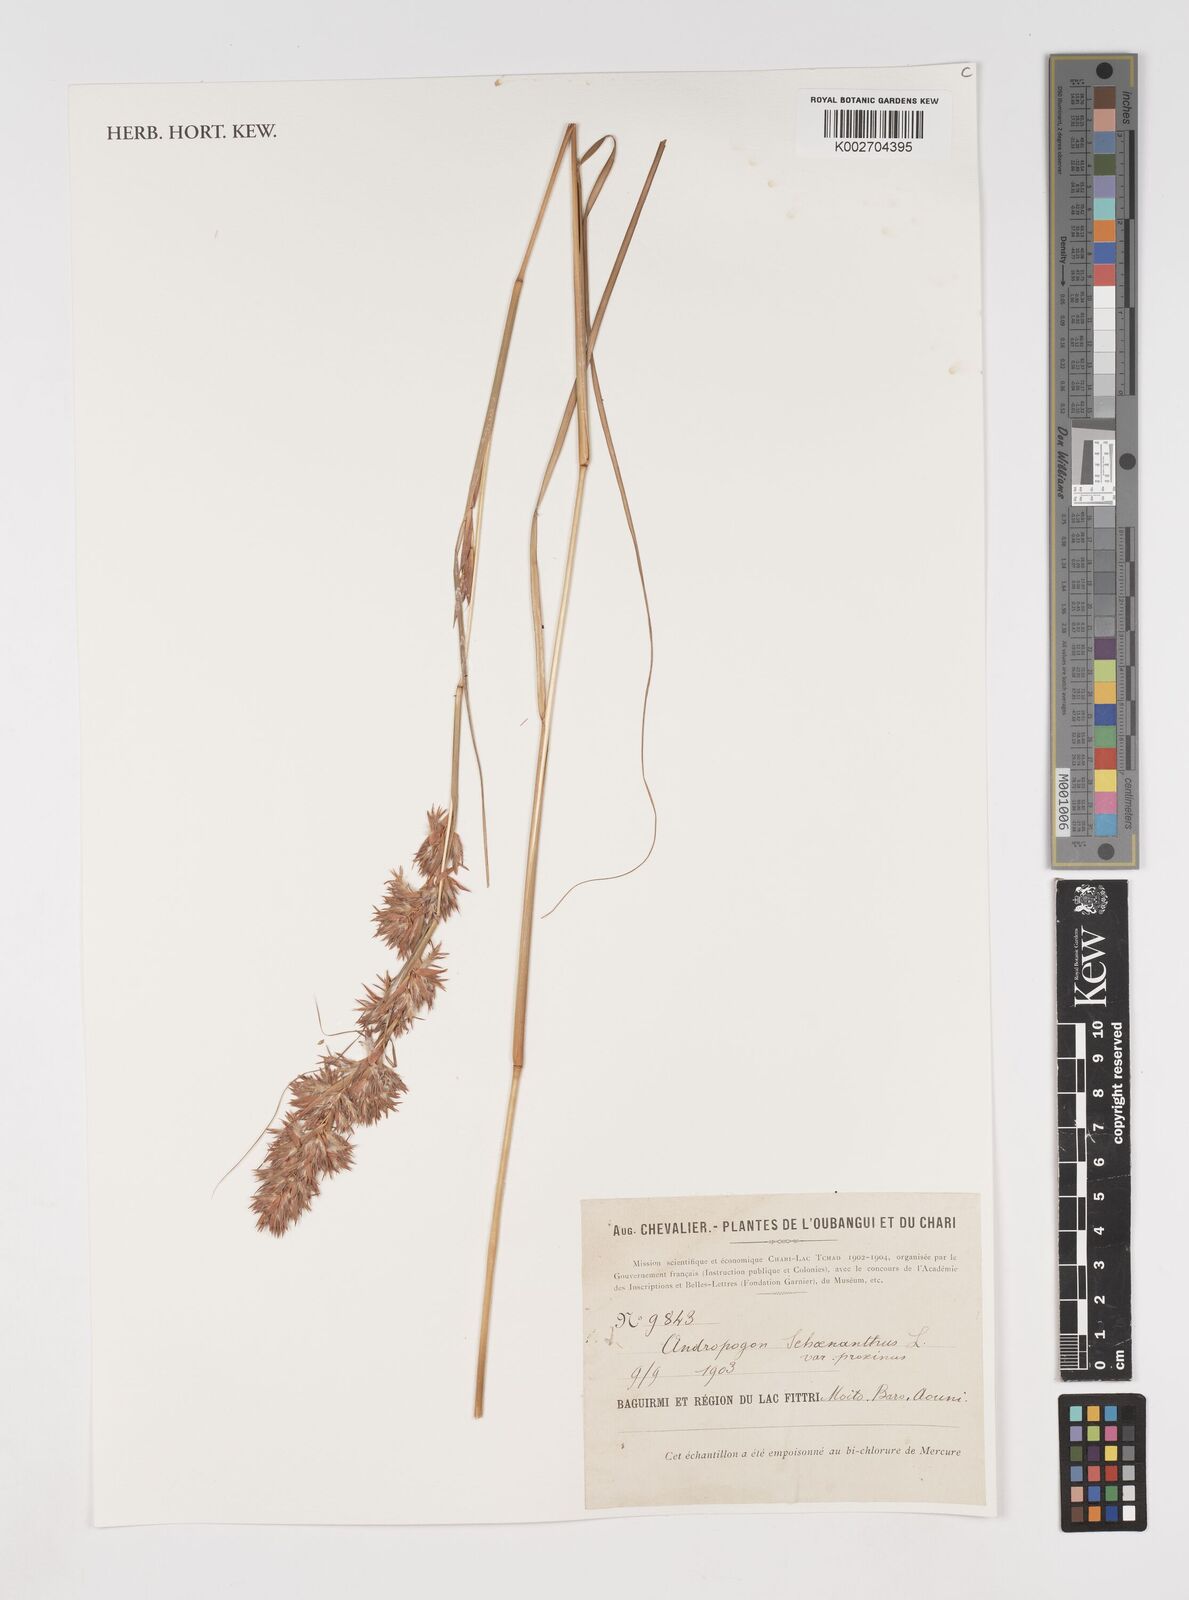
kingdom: Plantae
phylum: Tracheophyta
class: Liliopsida
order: Poales
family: Poaceae
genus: Cymbopogon
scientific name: Cymbopogon schoenanthus
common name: Geranium grass
